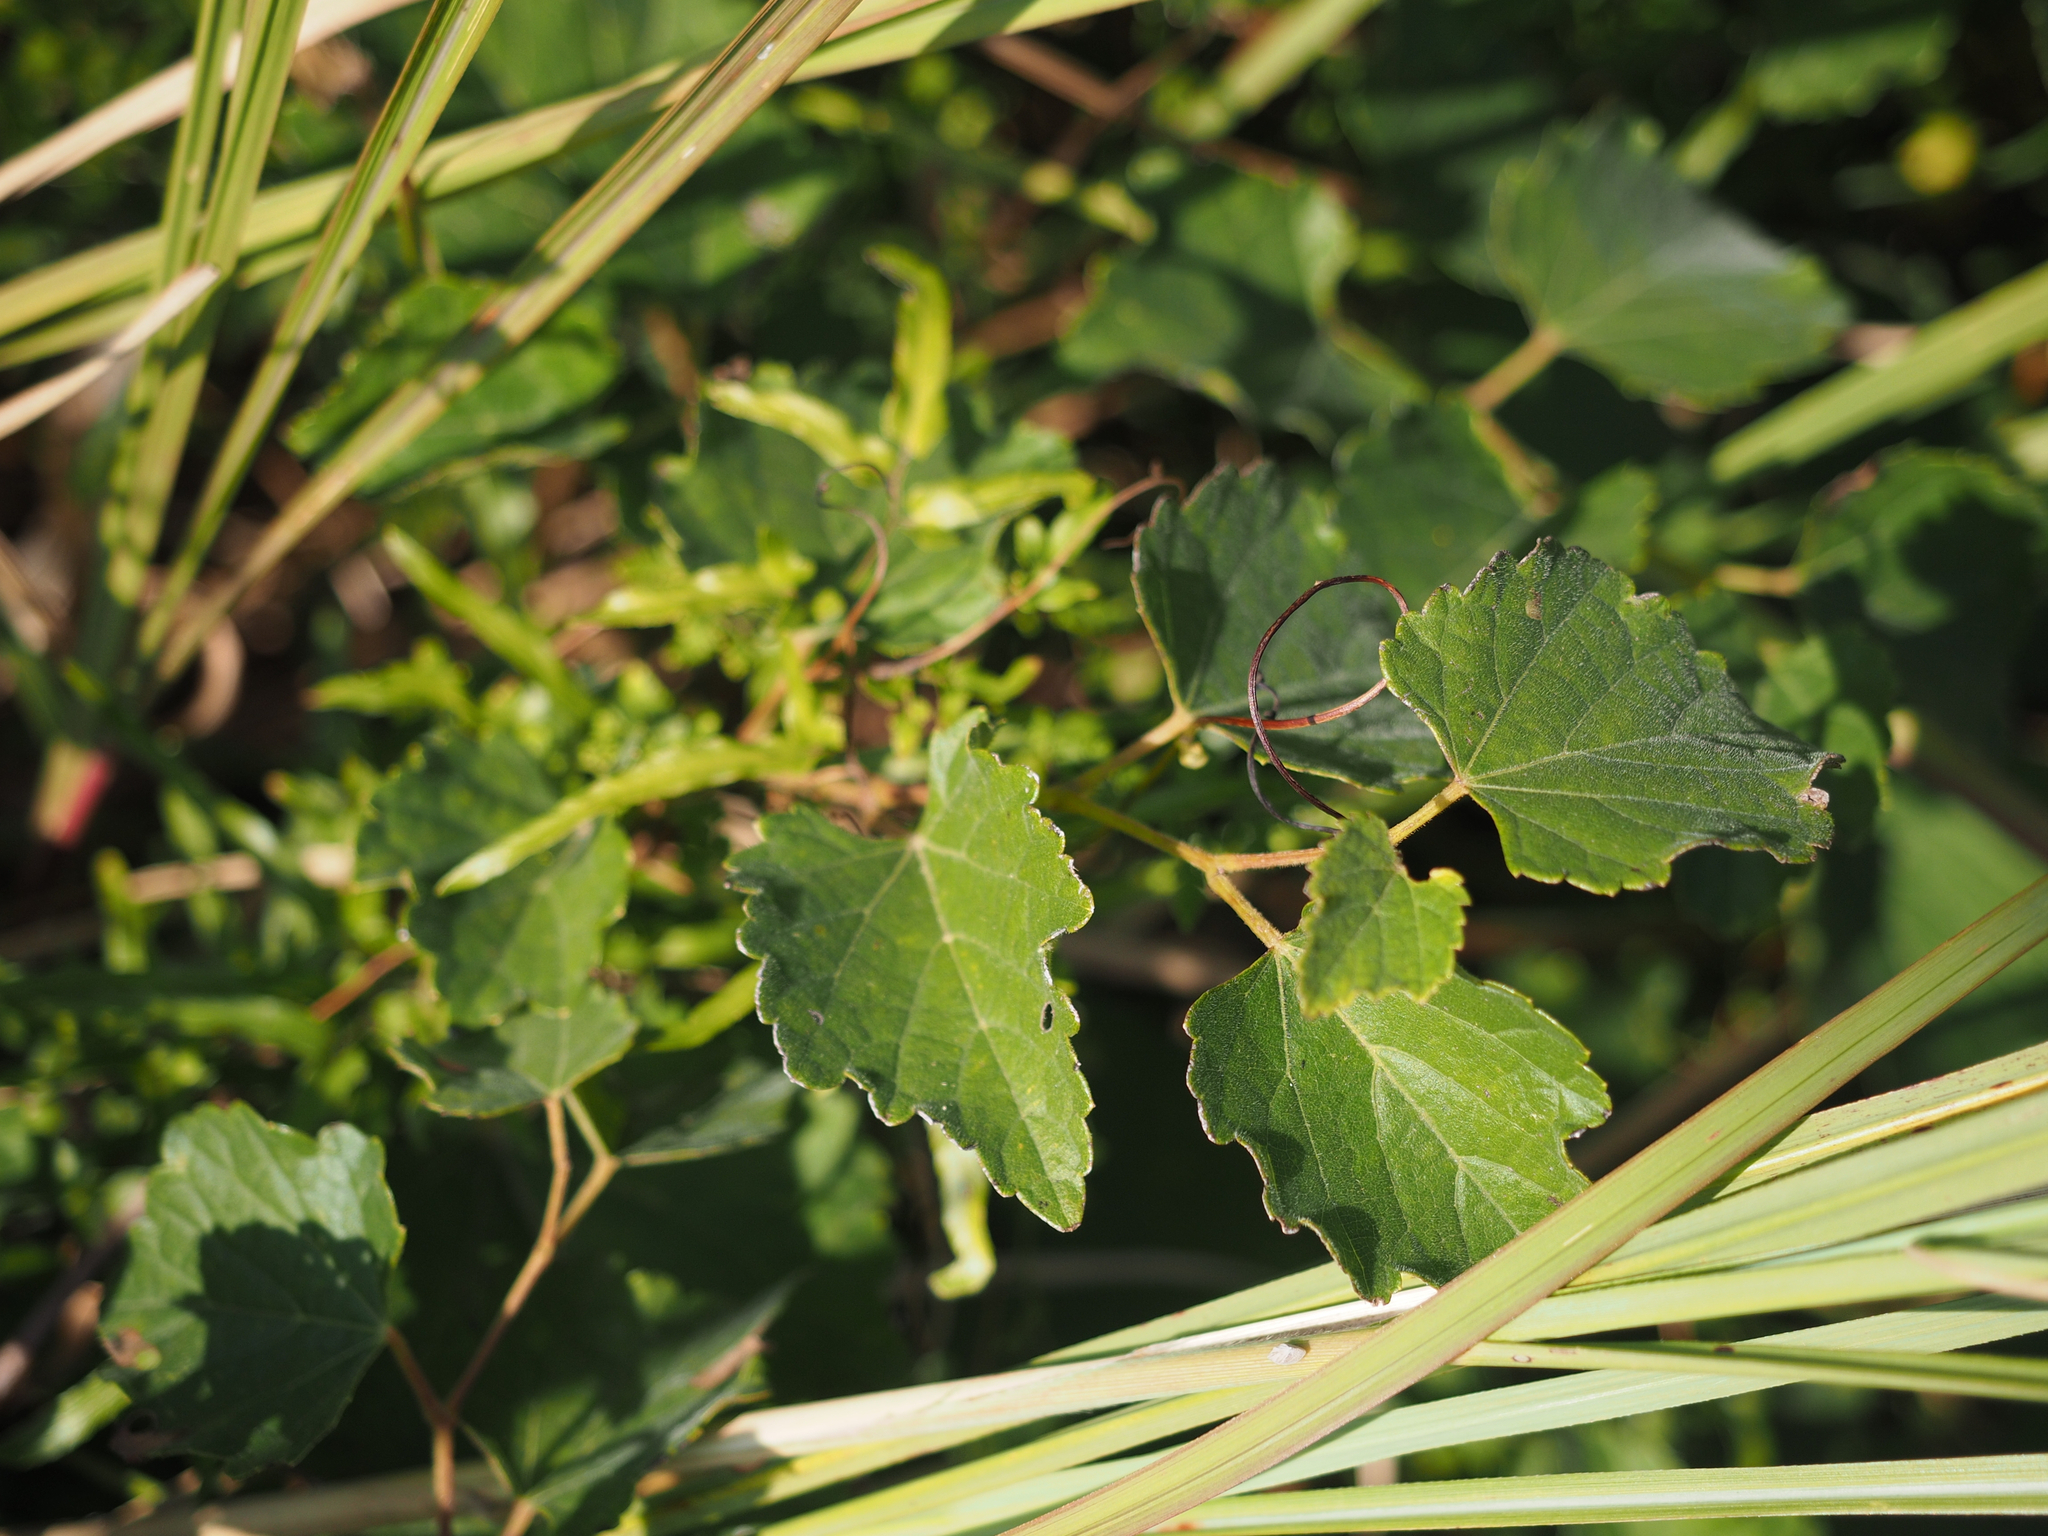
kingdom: Plantae
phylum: Tracheophyta
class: Magnoliopsida
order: Vitales
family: Vitaceae
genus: Ampelopsis
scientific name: Ampelopsis glandulosa
